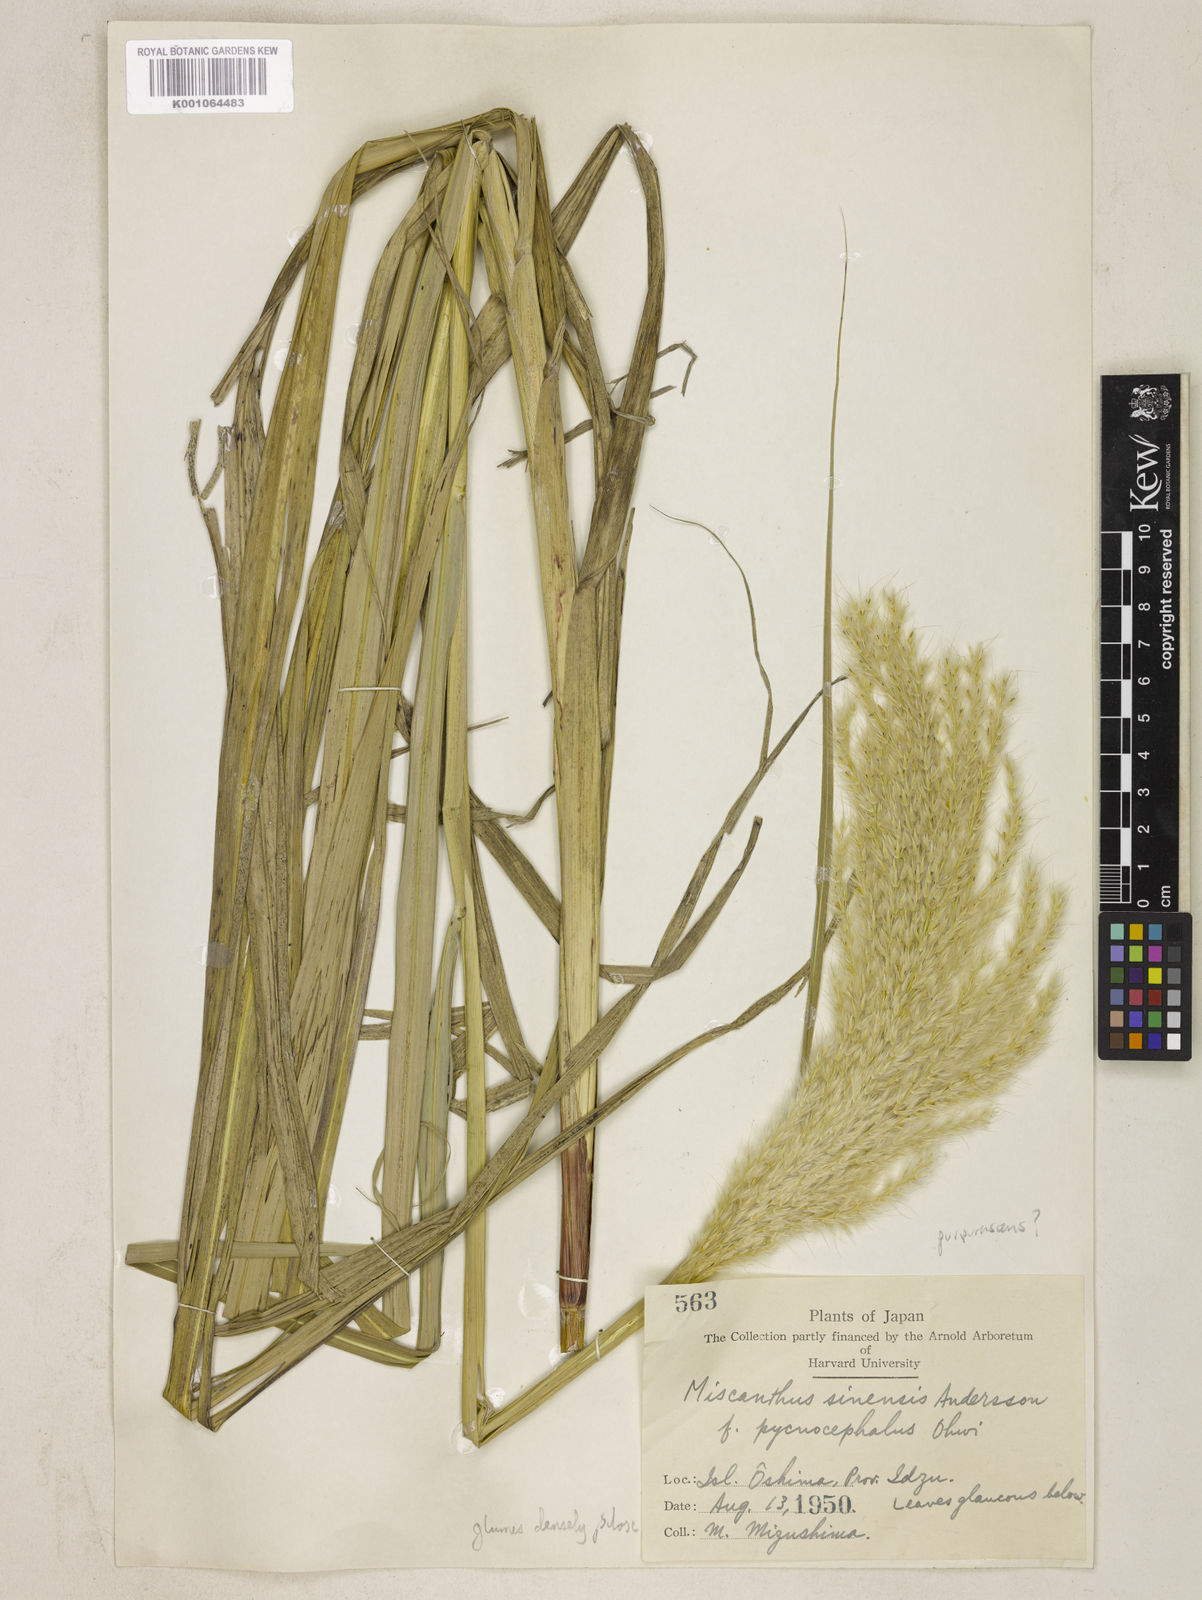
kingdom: Plantae
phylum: Tracheophyta
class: Liliopsida
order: Poales
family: Poaceae
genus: Miscanthus
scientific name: Miscanthus sinensis
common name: Chinese silvergrass
